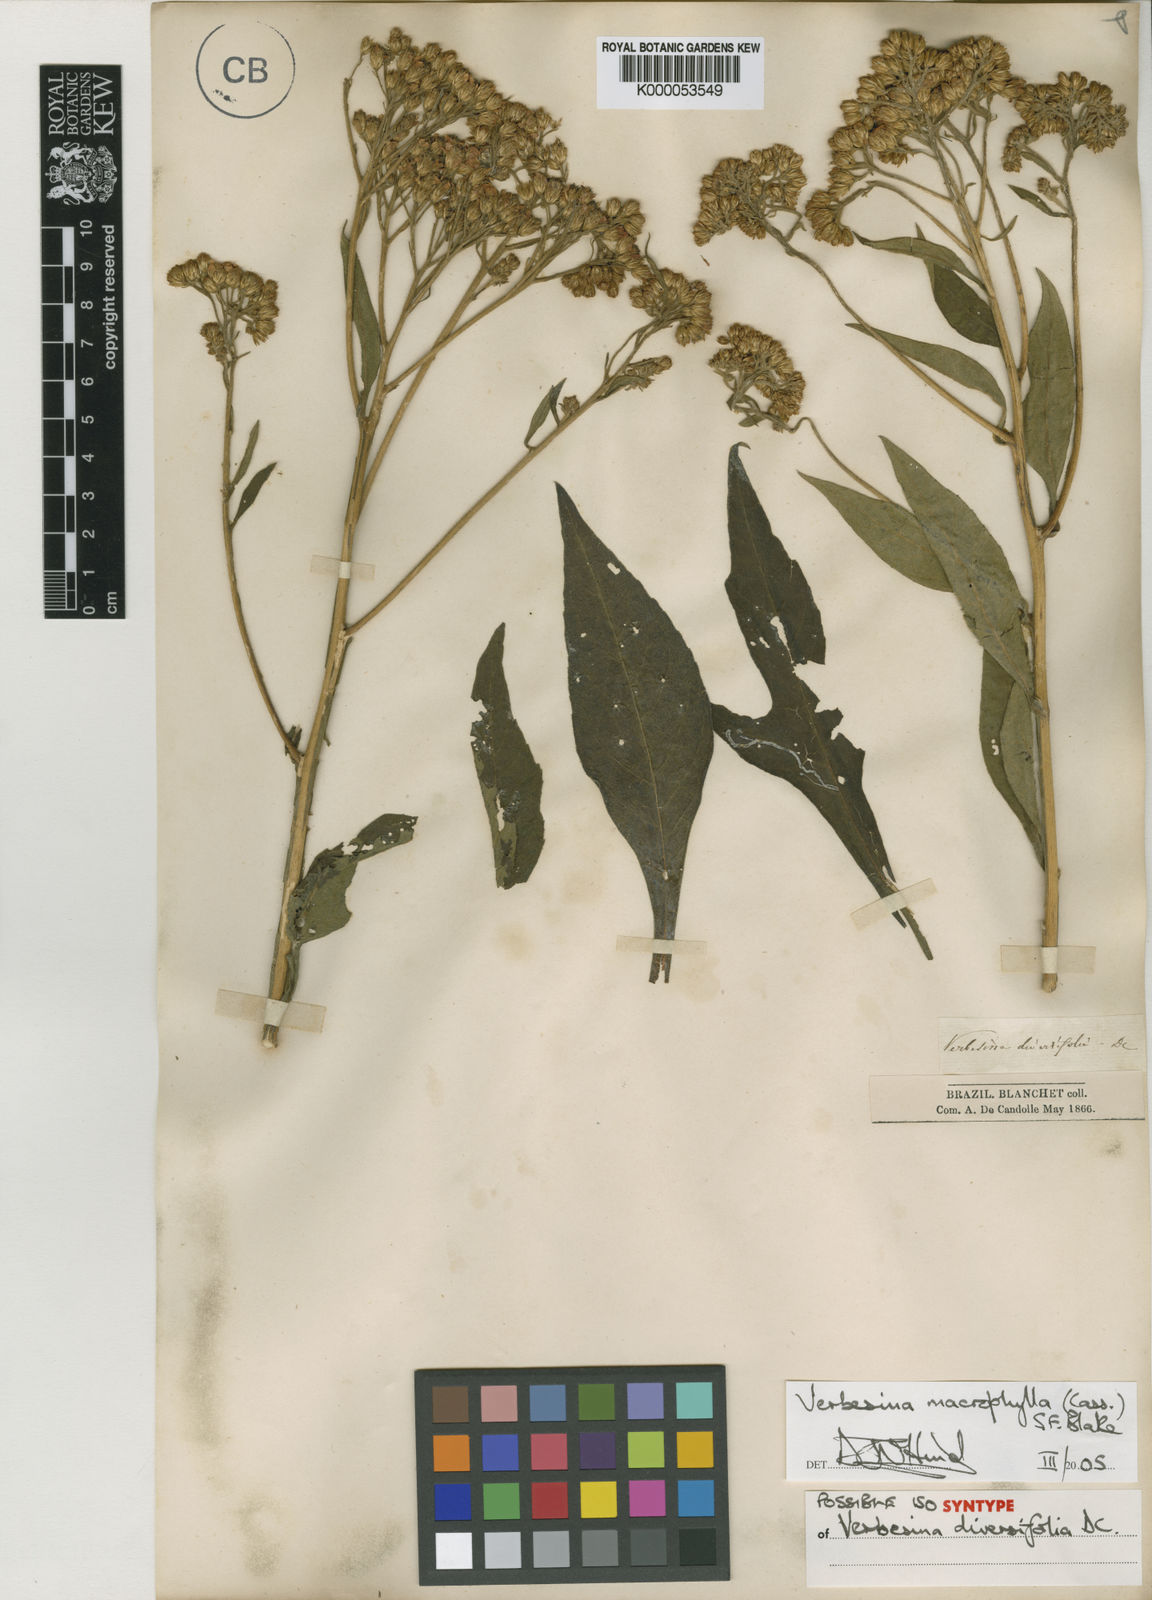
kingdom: Plantae
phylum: Tracheophyta
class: Magnoliopsida
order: Asterales
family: Asteraceae
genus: Verbesina
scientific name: Verbesina macrophylla
